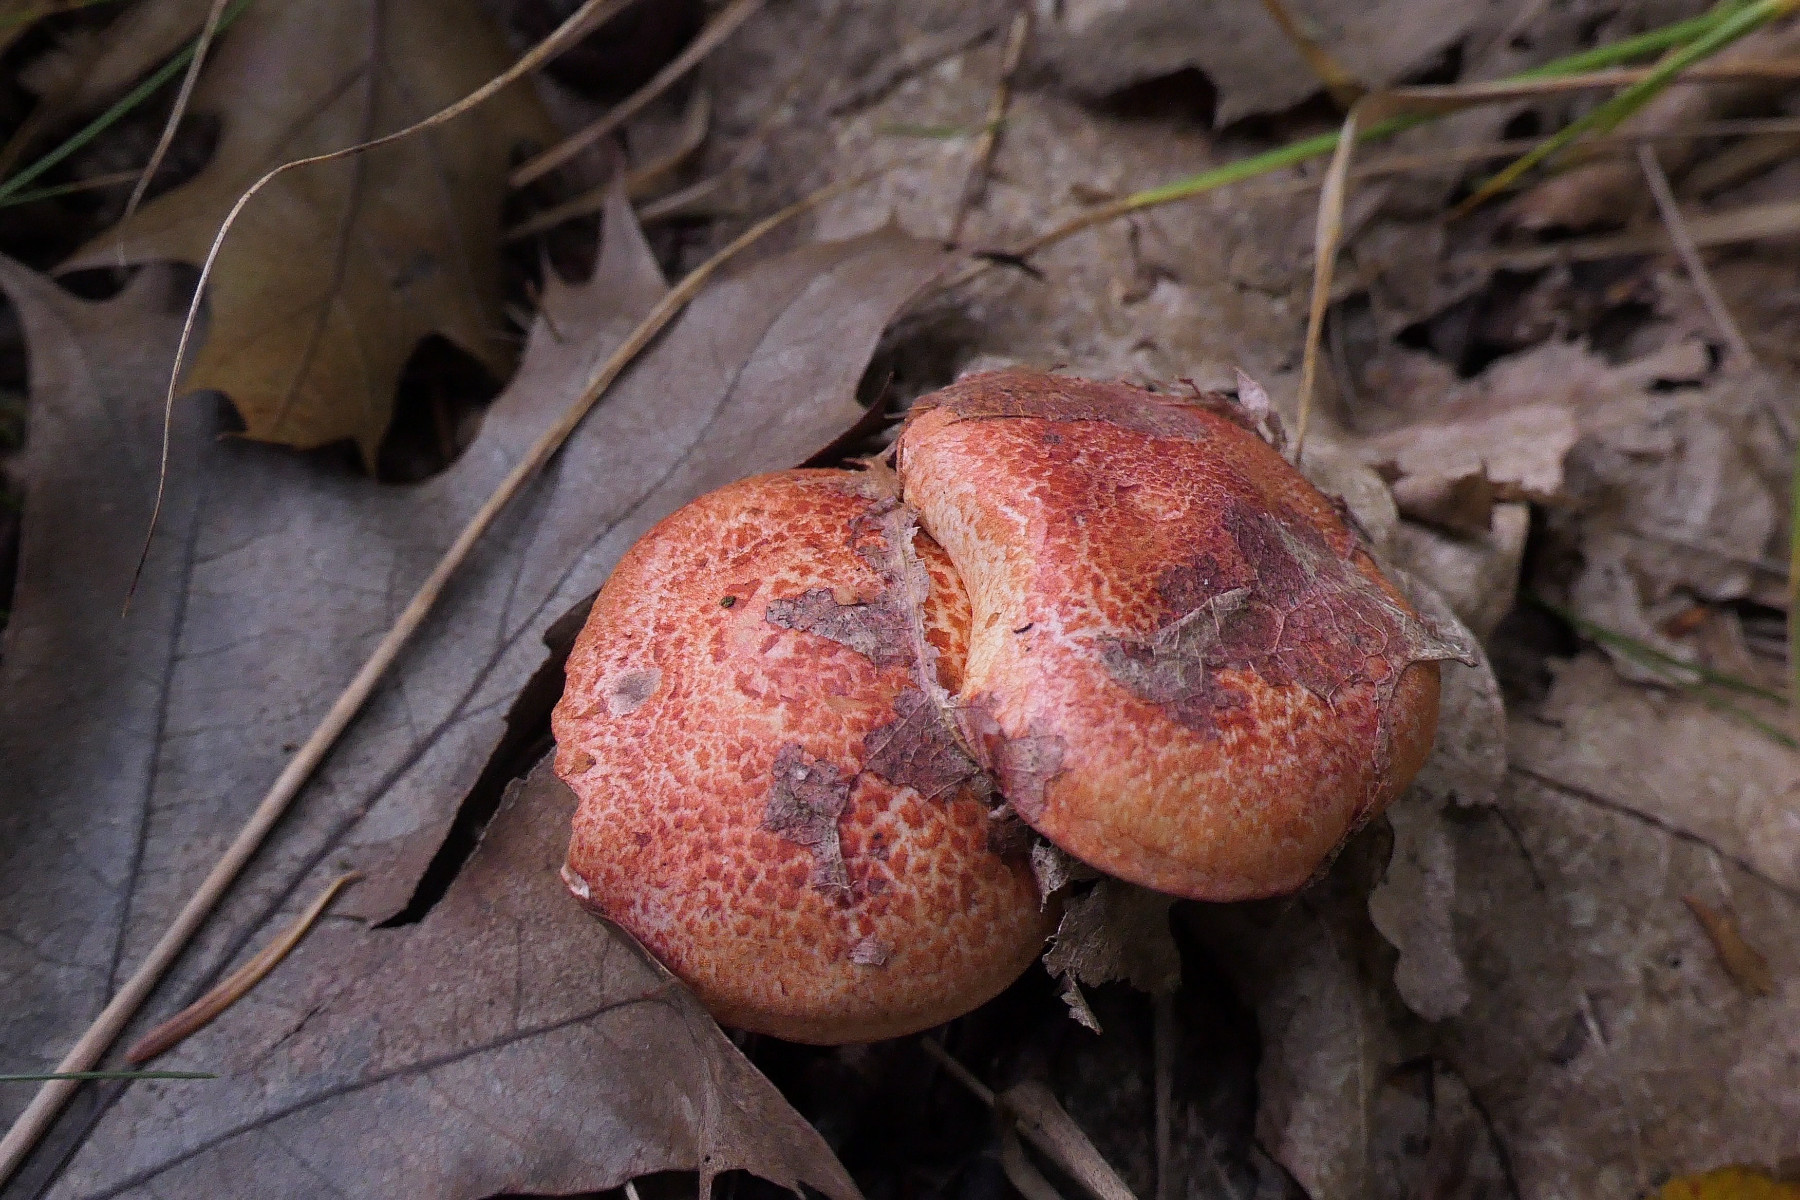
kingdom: Fungi
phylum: Basidiomycota
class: Agaricomycetes
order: Agaricales
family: Cortinariaceae
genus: Cortinarius
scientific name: Cortinarius bolaris
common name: cinnoberskællet slørhat
